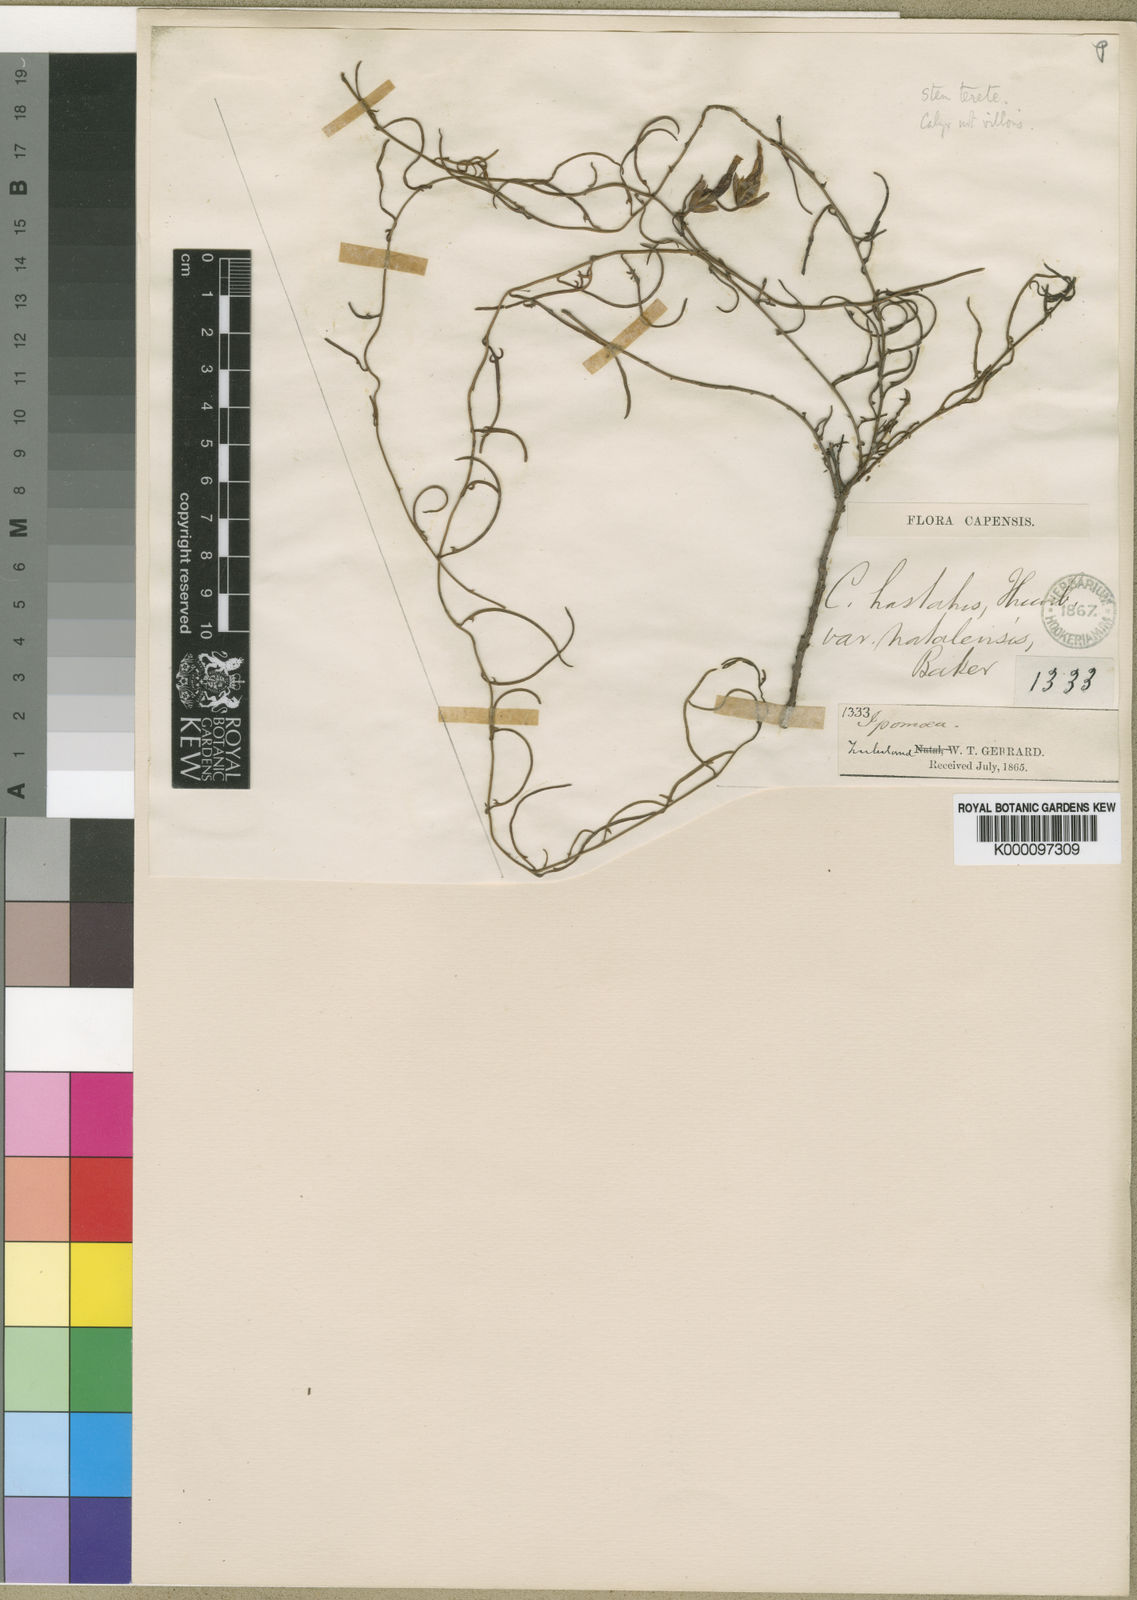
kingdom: Plantae
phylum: Tracheophyta
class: Magnoliopsida
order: Solanales
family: Convolvulaceae
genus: Convolvulus
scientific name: Convolvulus sagittatus
